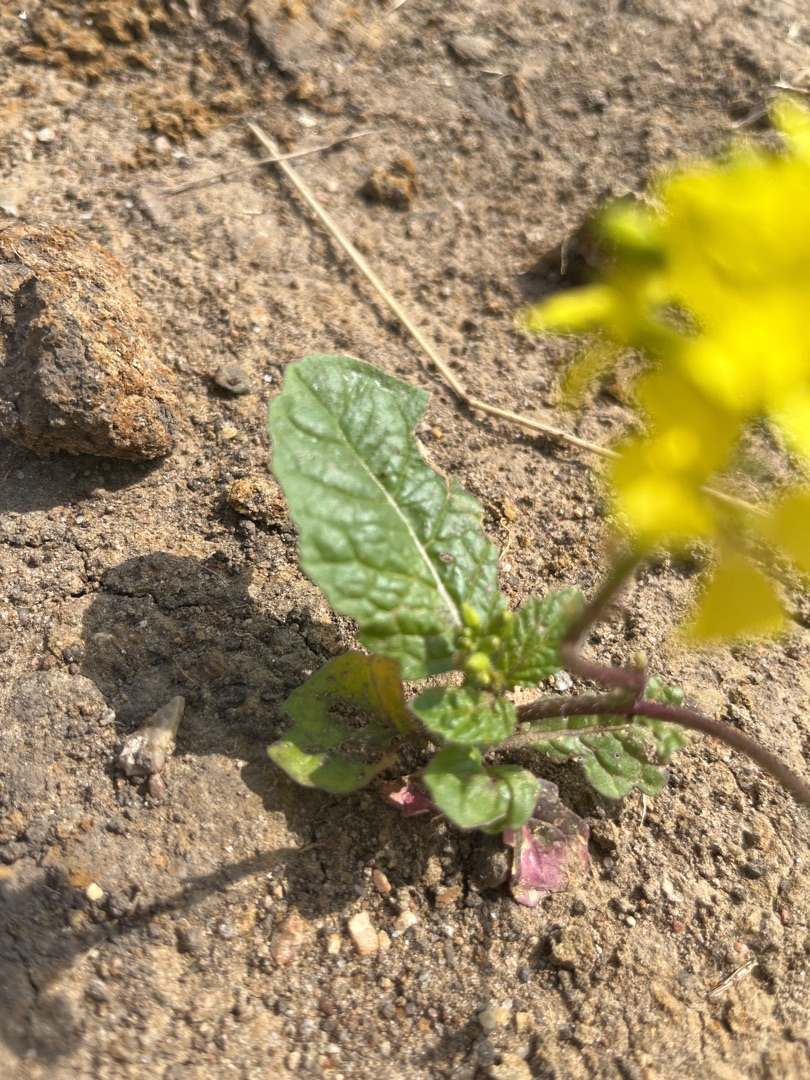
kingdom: Plantae
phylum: Tracheophyta
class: Magnoliopsida
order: Brassicales
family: Brassicaceae
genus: Sinapis
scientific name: Sinapis arvensis
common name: Ager-sennep
